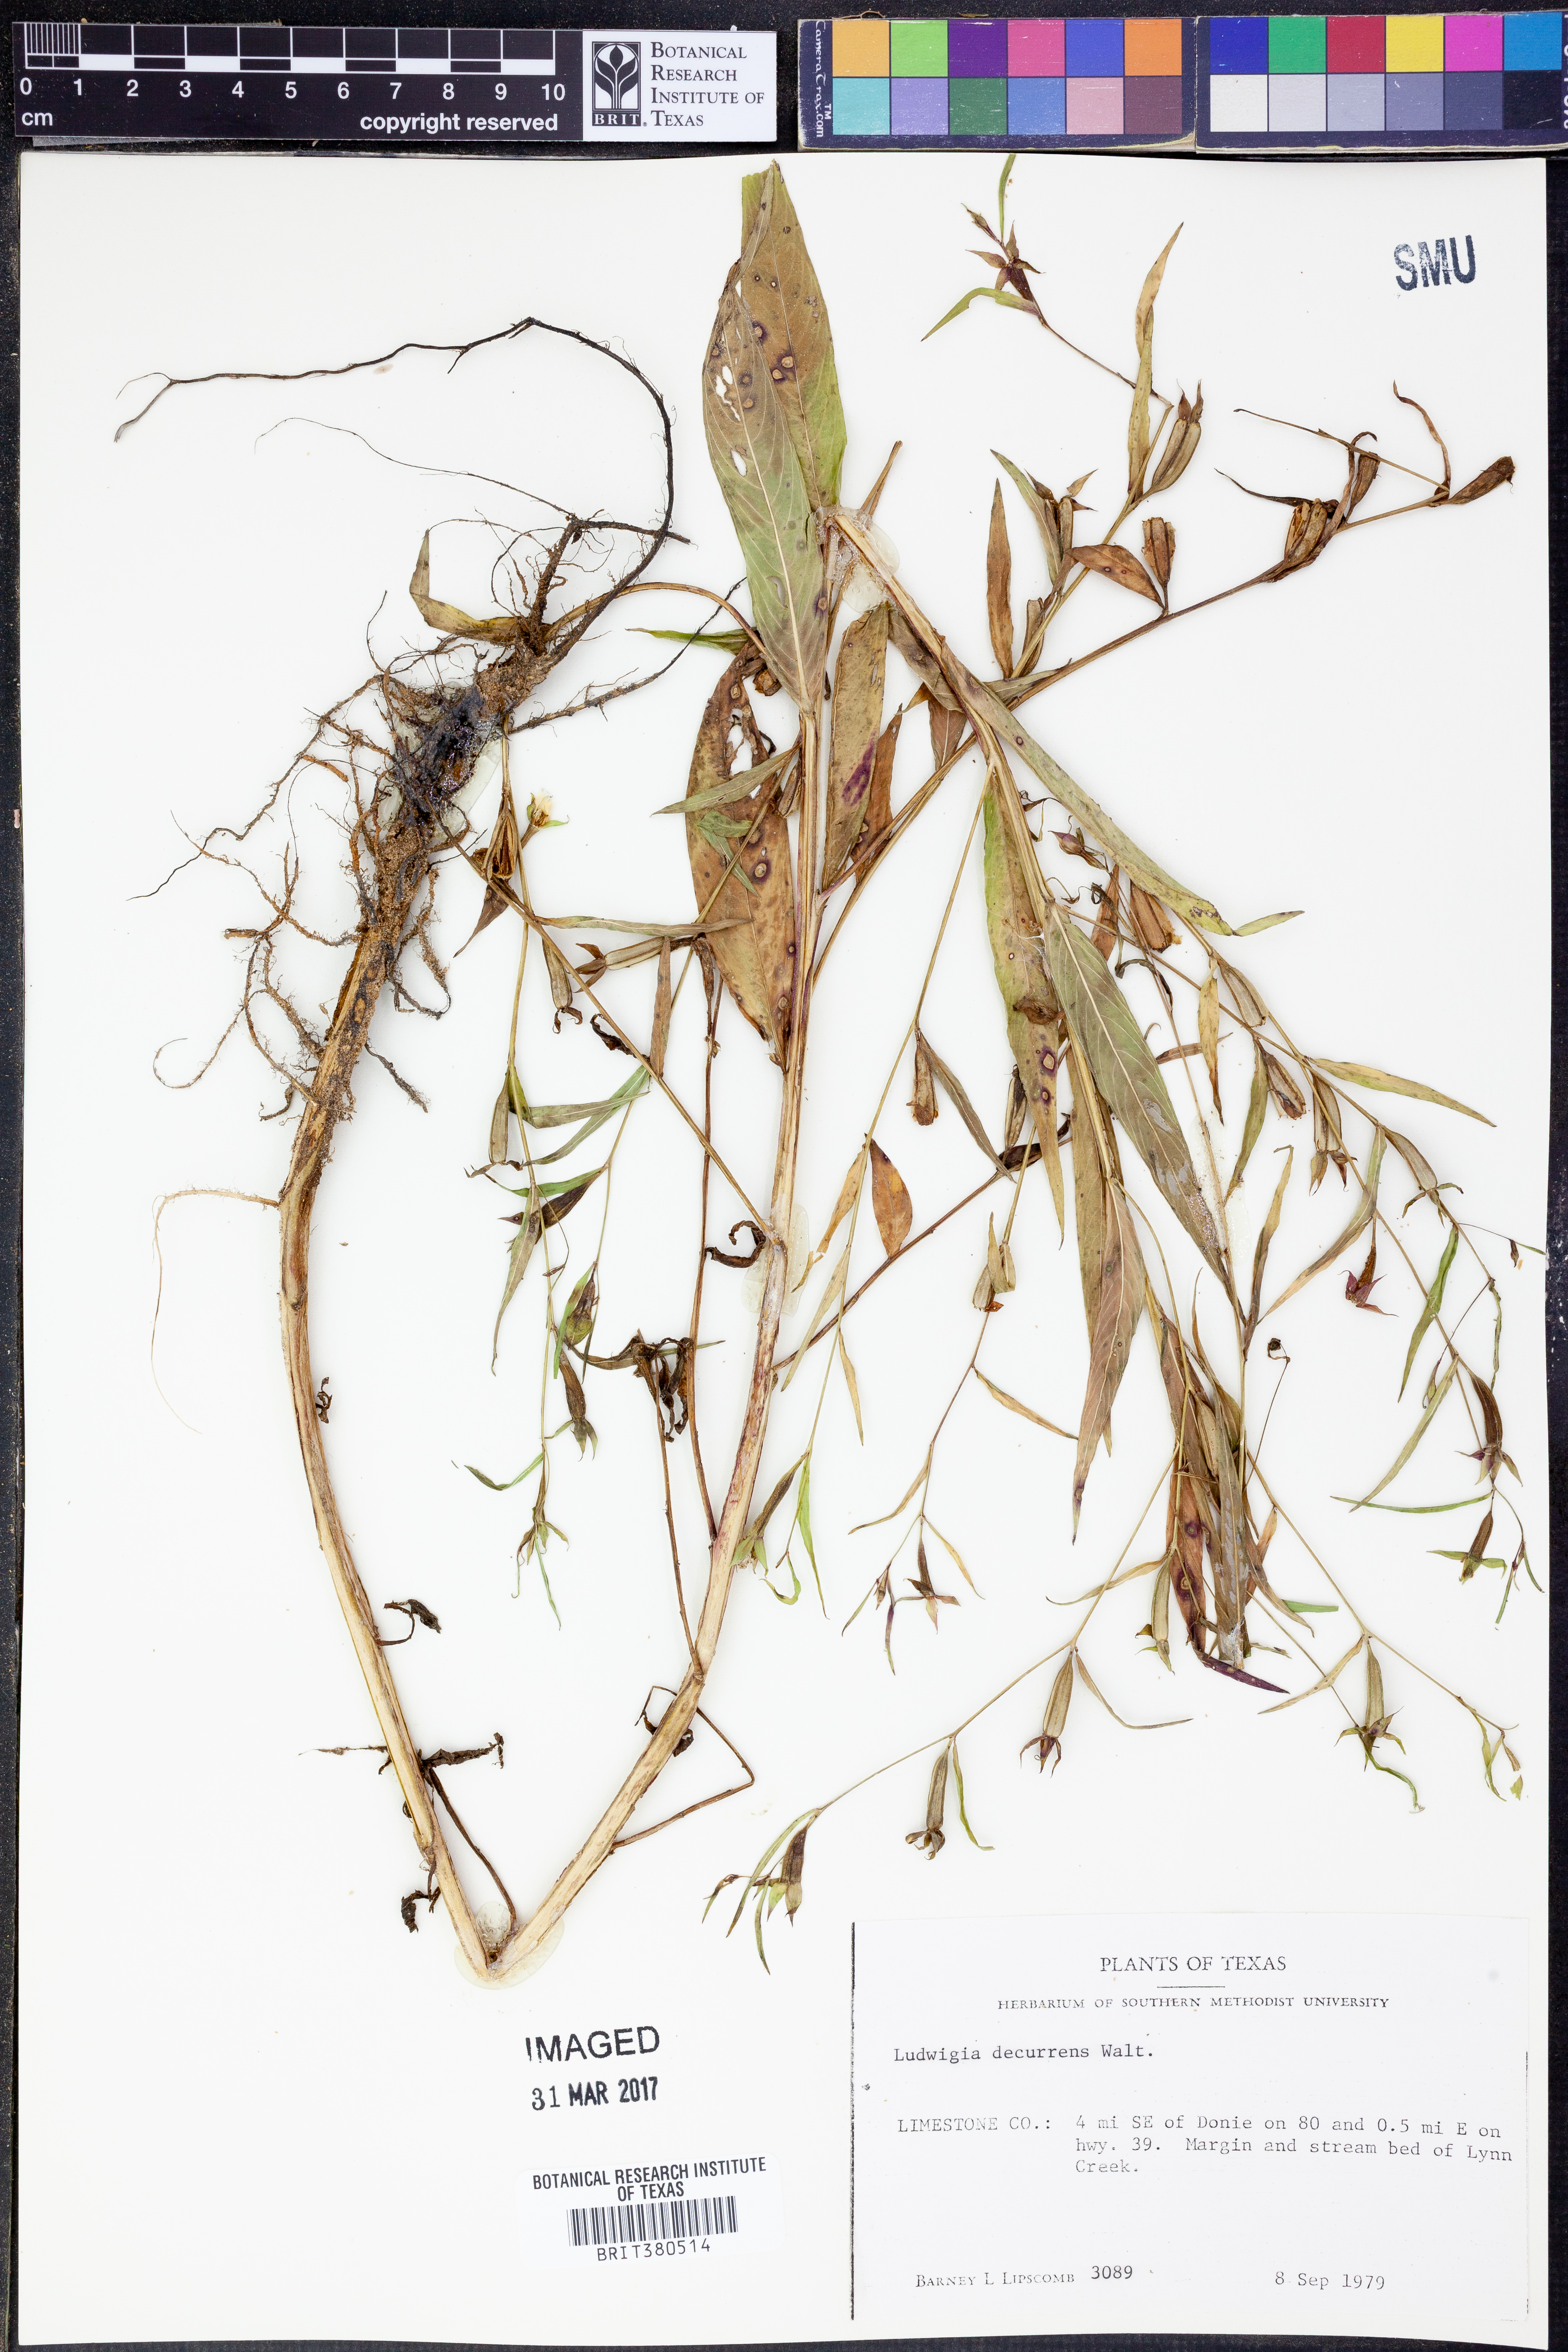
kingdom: Plantae
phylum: Tracheophyta
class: Magnoliopsida
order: Myrtales
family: Onagraceae
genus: Ludwigia
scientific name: Ludwigia decurrens
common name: Winged water-primrose
